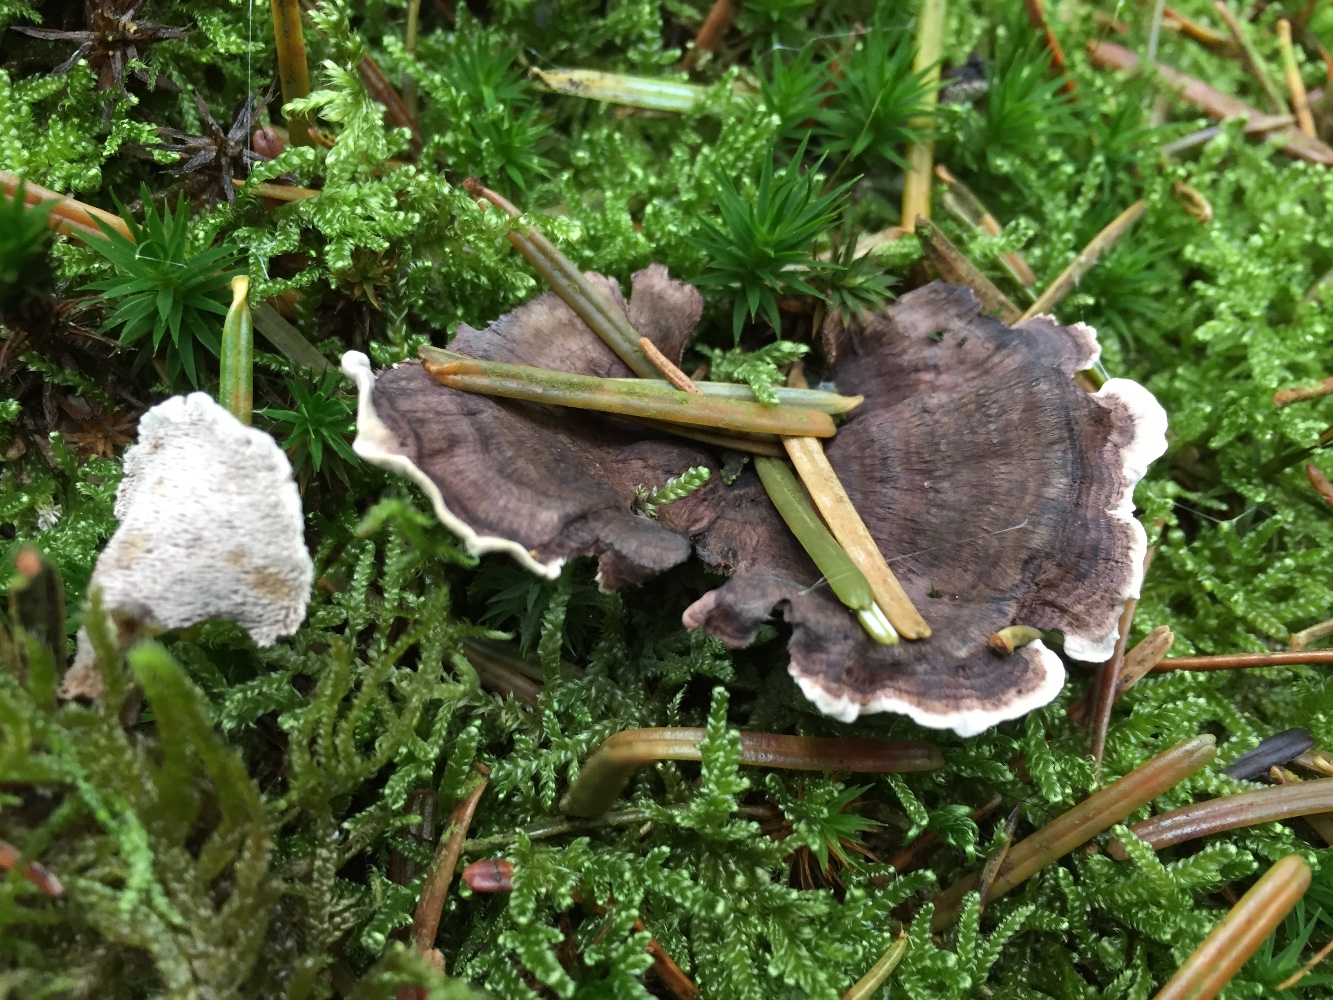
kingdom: Fungi
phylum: Basidiomycota
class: Agaricomycetes
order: Thelephorales
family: Thelephoraceae
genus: Phellodon
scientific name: Phellodon tomentosus
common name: vellugtende duftpigsvamp
